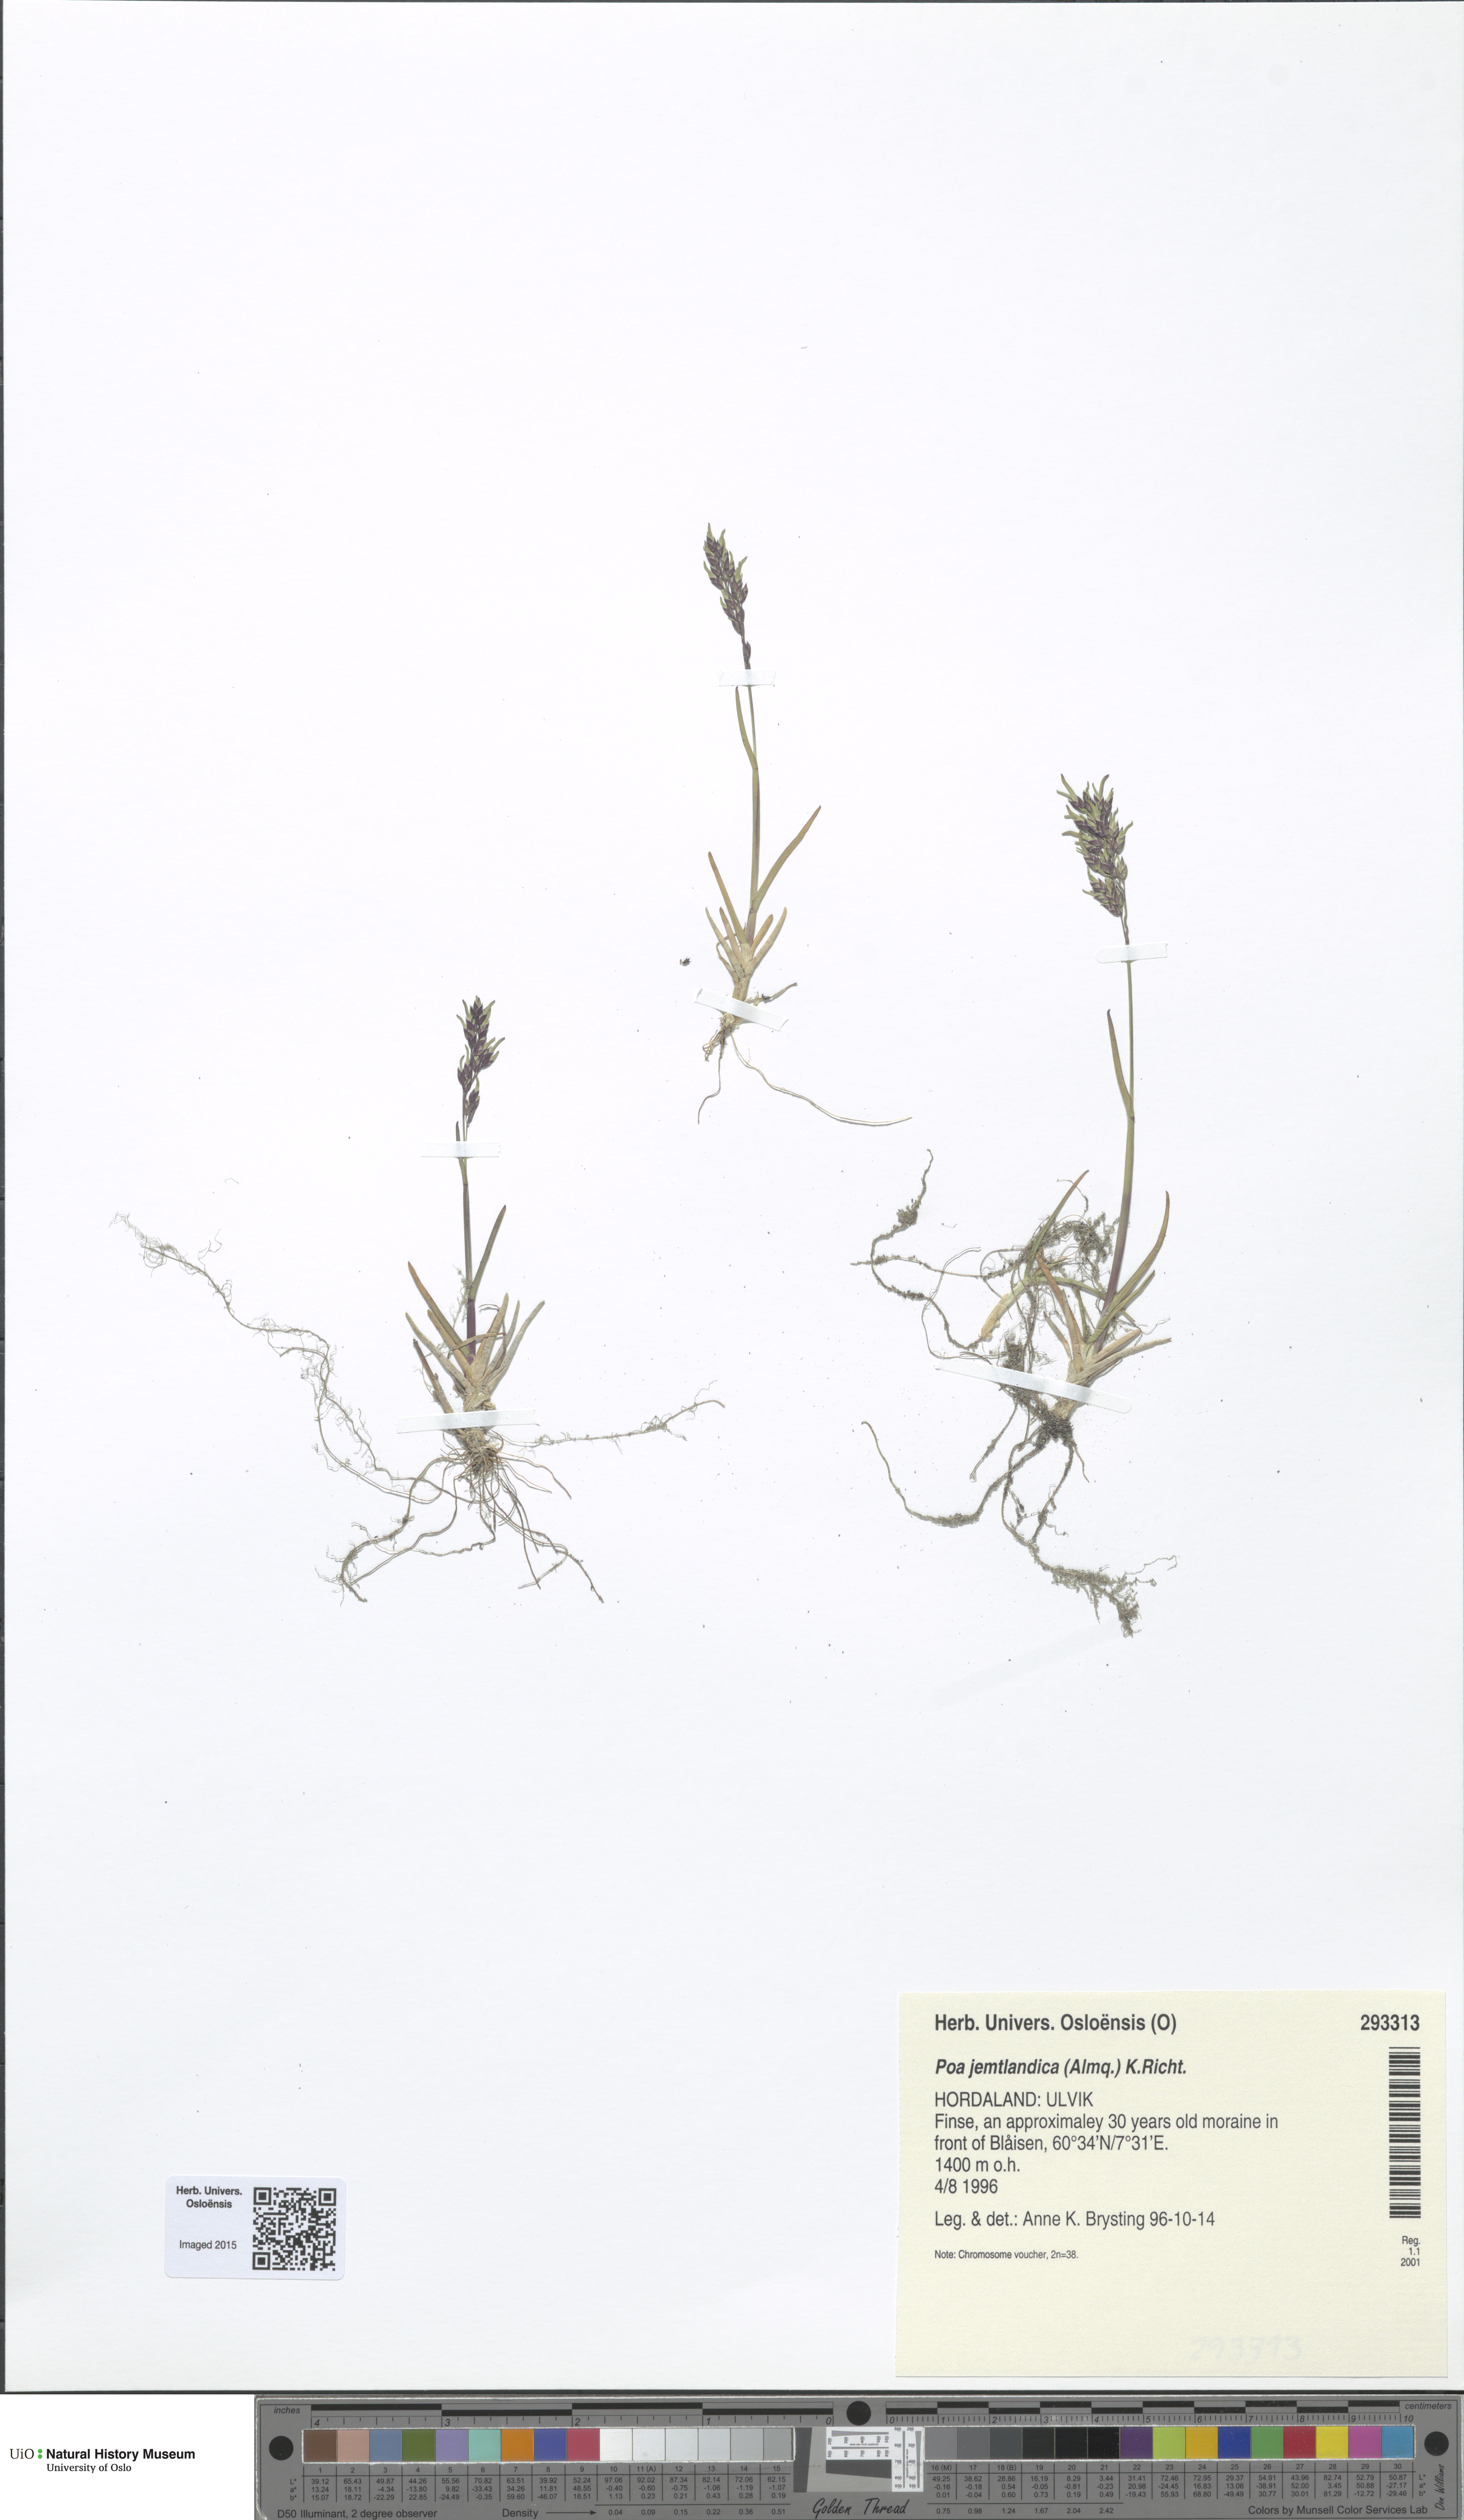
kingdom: Plantae
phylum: Tracheophyta
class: Liliopsida
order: Poales
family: Poaceae
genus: Poa
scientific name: Poa jemtlandica
